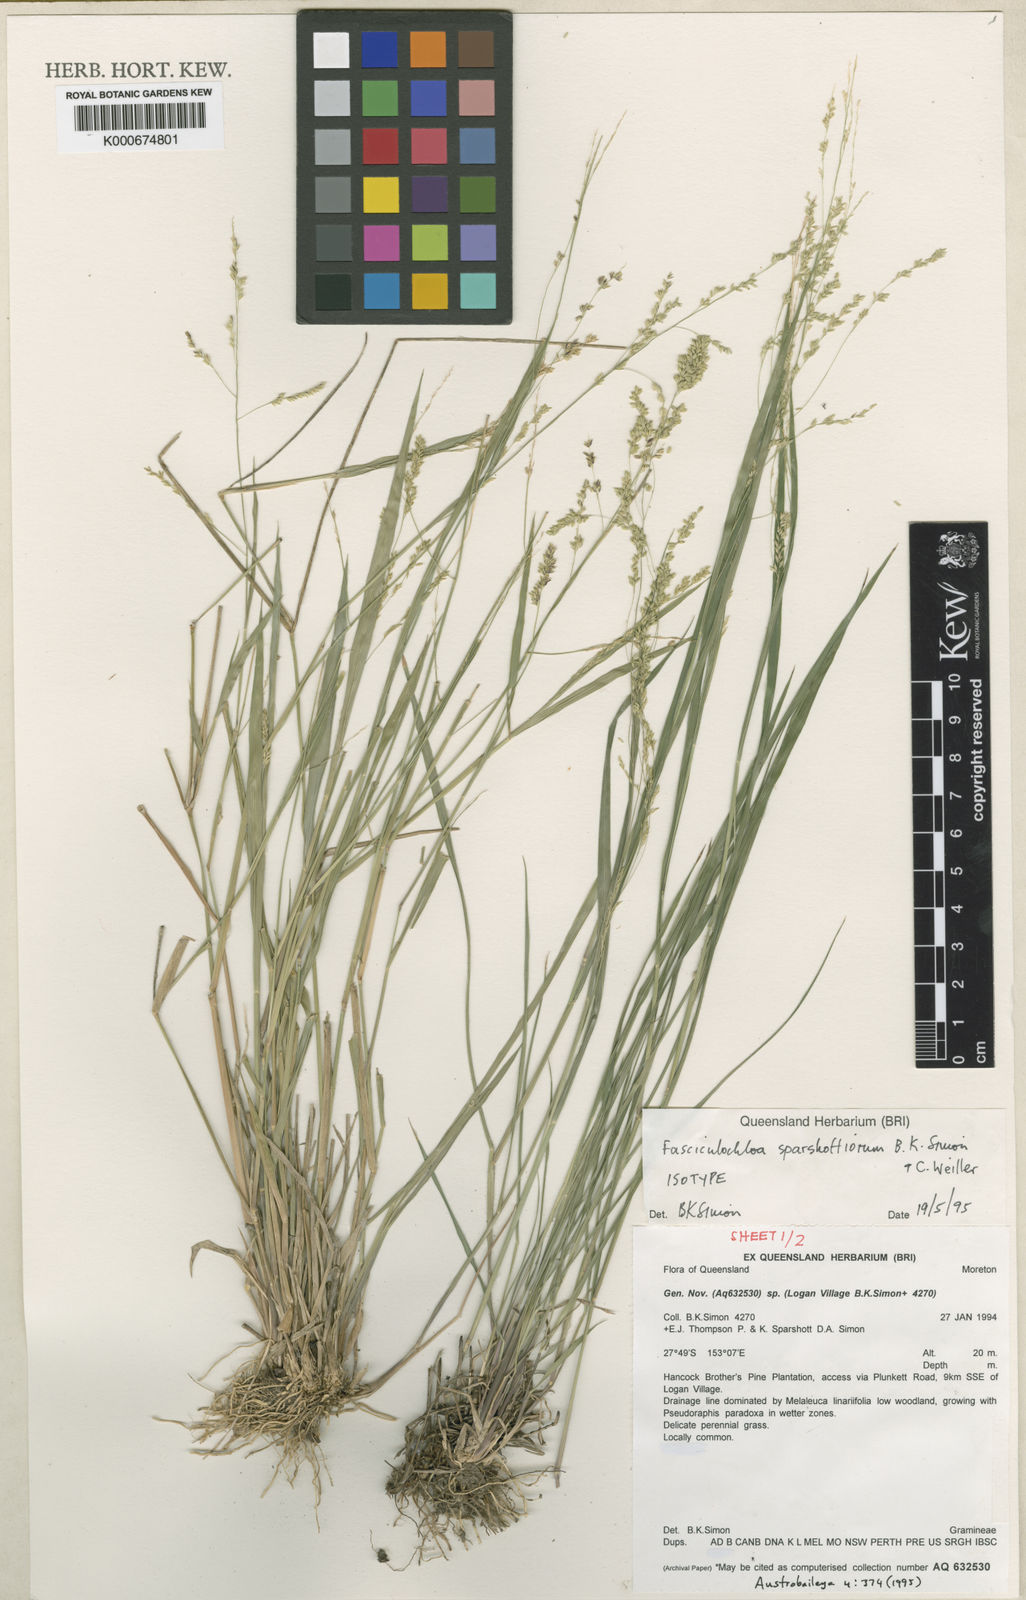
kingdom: Plantae
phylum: Tracheophyta
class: Liliopsida
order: Poales
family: Poaceae
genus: Steinchisma
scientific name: Steinchisma hians
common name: Gaping panic grass
